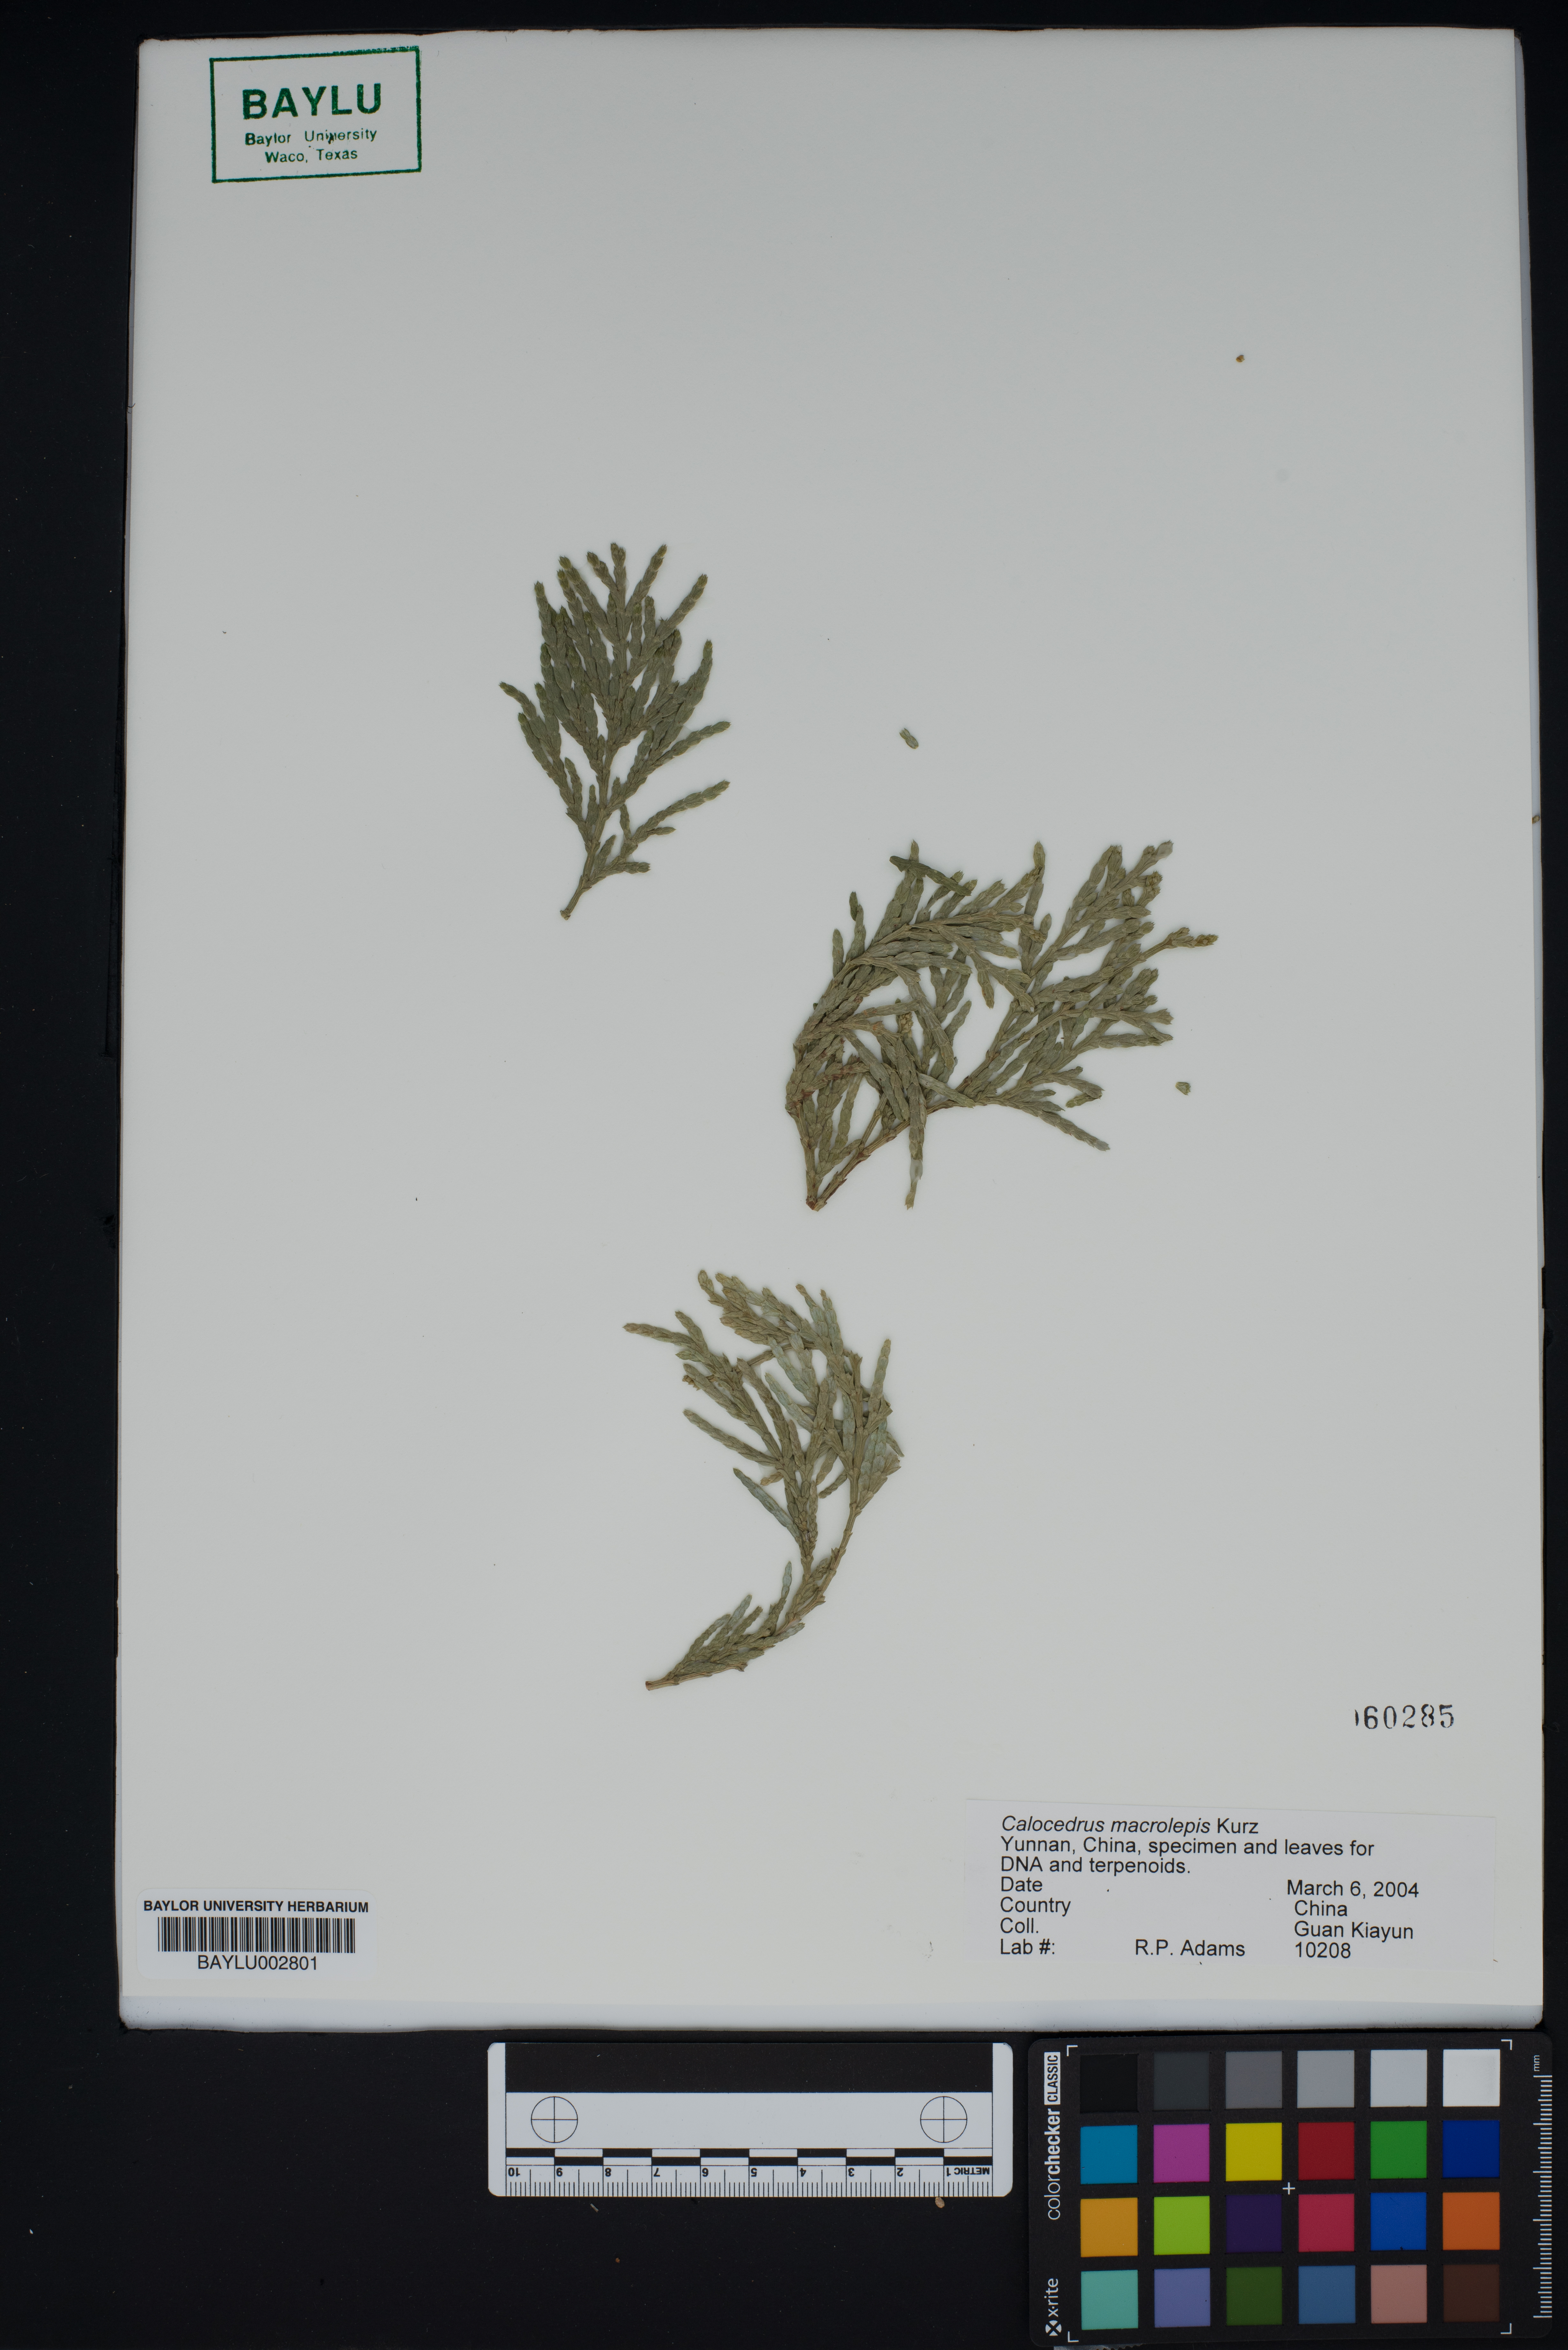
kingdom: Plantae
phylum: Tracheophyta
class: Pinopsida
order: Pinales
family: Cupressaceae
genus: Calocedrus
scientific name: Calocedrus macrolepis
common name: Chinese incense-cedar
